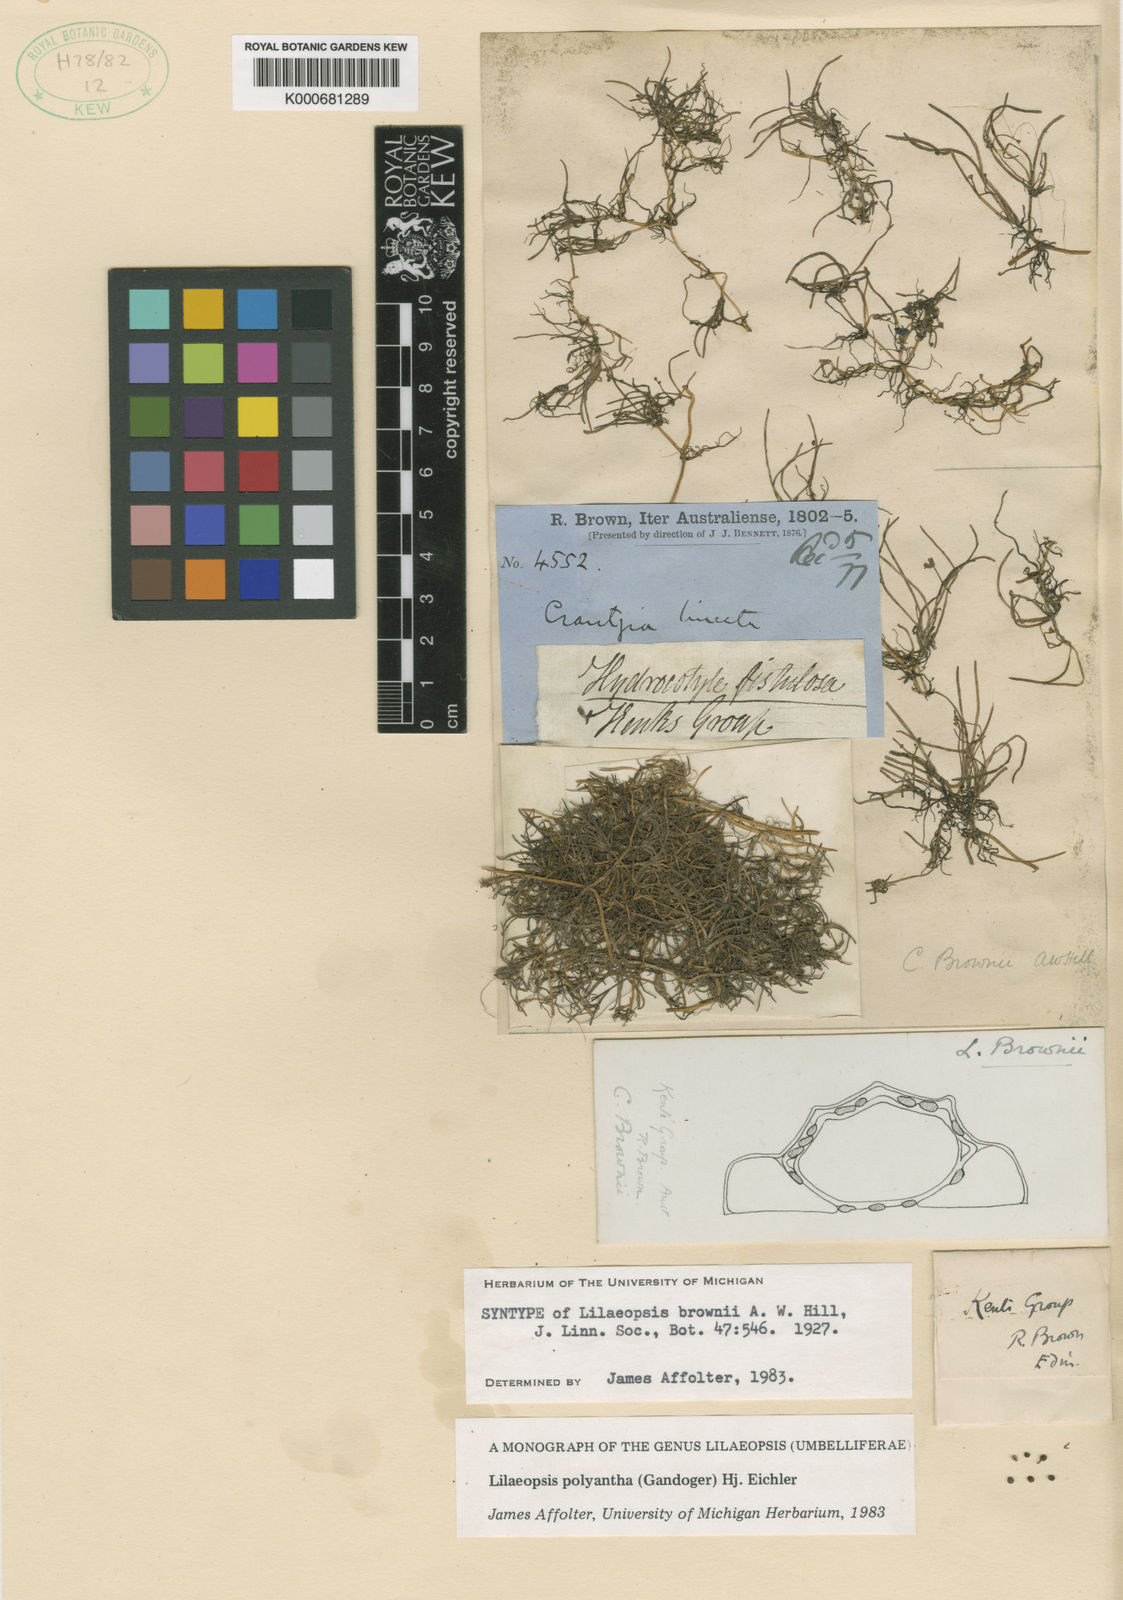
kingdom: Plantae
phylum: Tracheophyta
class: Magnoliopsida
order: Apiales
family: Apiaceae
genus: Lilaeopsis
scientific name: Lilaeopsis polyantha
